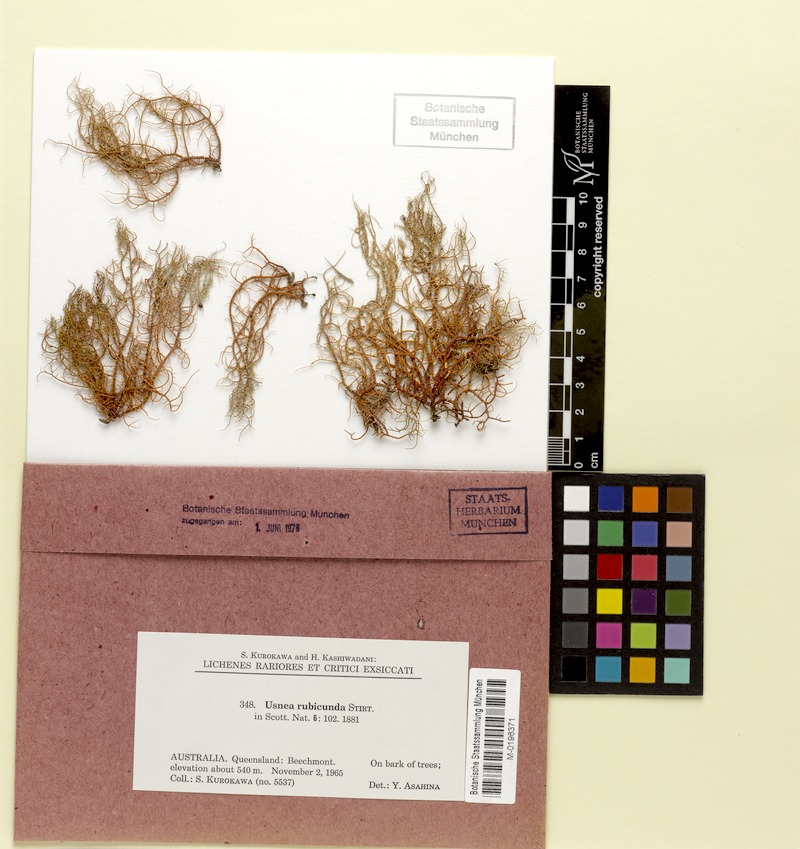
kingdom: Fungi
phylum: Ascomycota
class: Lecanoromycetes
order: Lecanorales
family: Parmeliaceae
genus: Usnea
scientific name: Usnea rubicunda
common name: Red beard lichen
